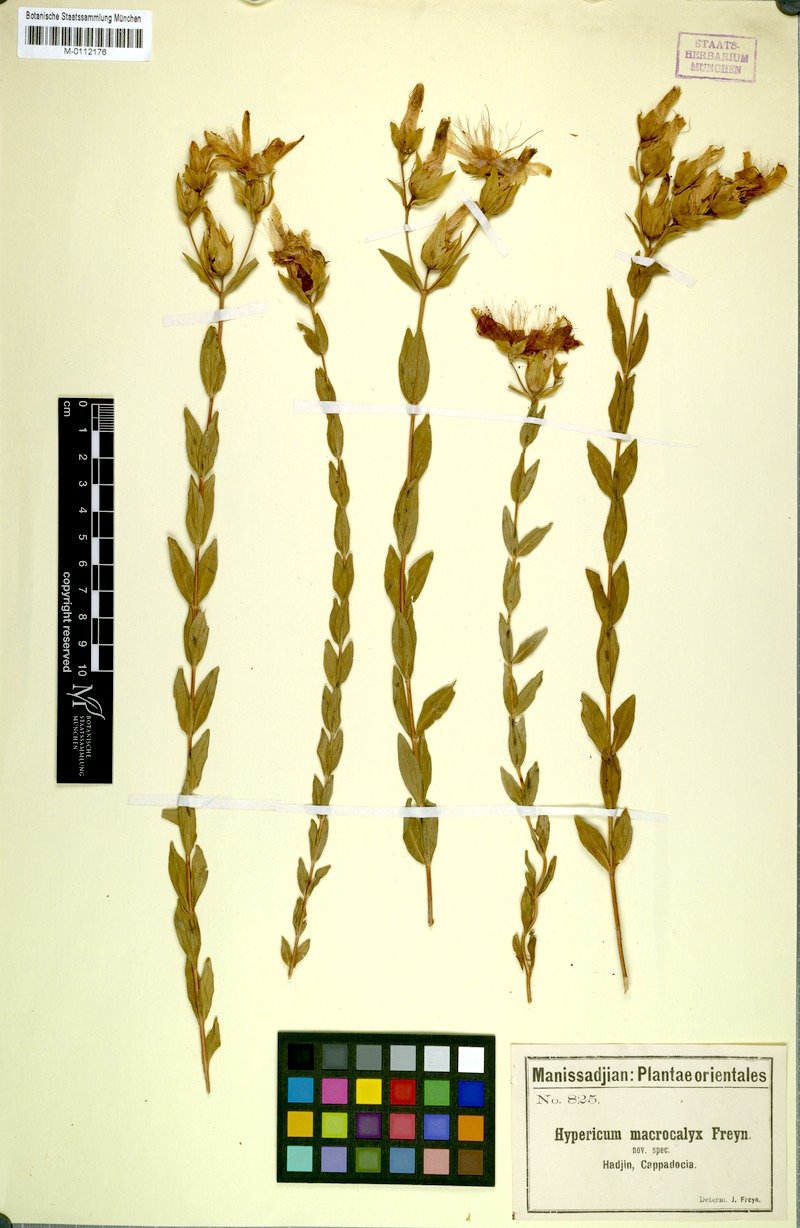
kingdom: Plantae
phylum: Tracheophyta
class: Magnoliopsida
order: Malpighiales
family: Hypericaceae
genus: Hypericum
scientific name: Hypericum polyphyllum
